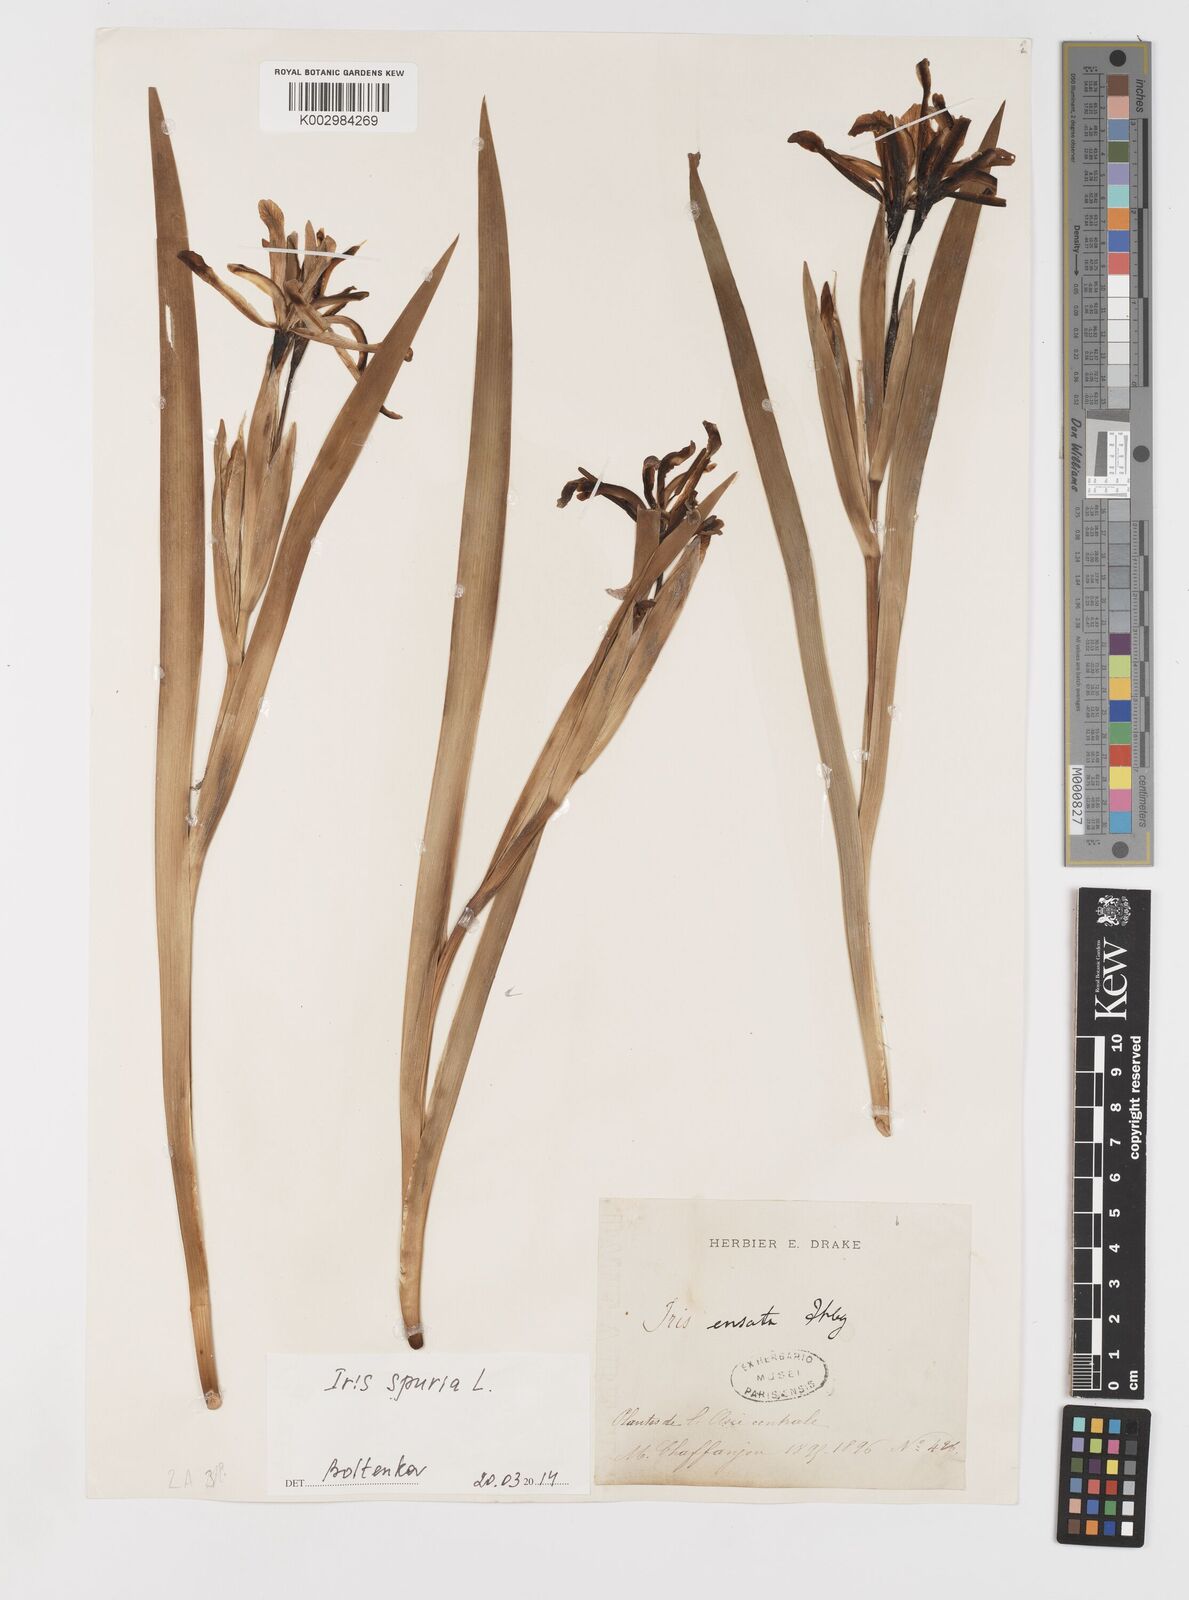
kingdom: Plantae
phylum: Tracheophyta
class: Liliopsida
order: Asparagales
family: Iridaceae
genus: Iris
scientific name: Iris spuria
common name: Blue iris
